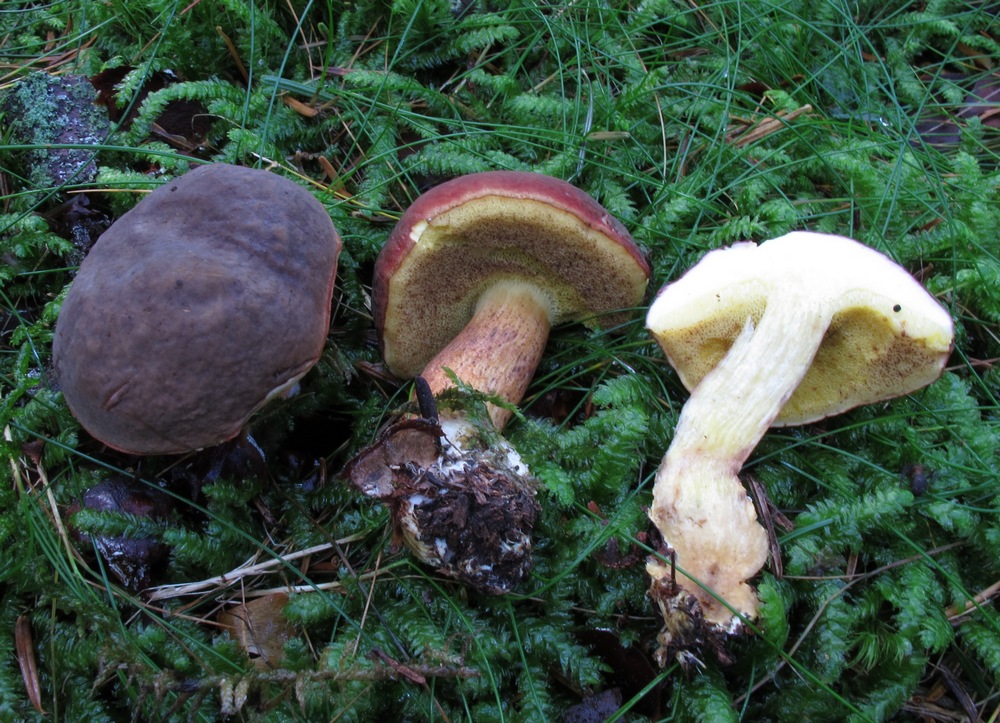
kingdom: Fungi
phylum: Basidiomycota
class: Agaricomycetes
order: Boletales
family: Boletaceae
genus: Xerocomellus
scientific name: Xerocomellus pruinatus
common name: dugget rørhat
